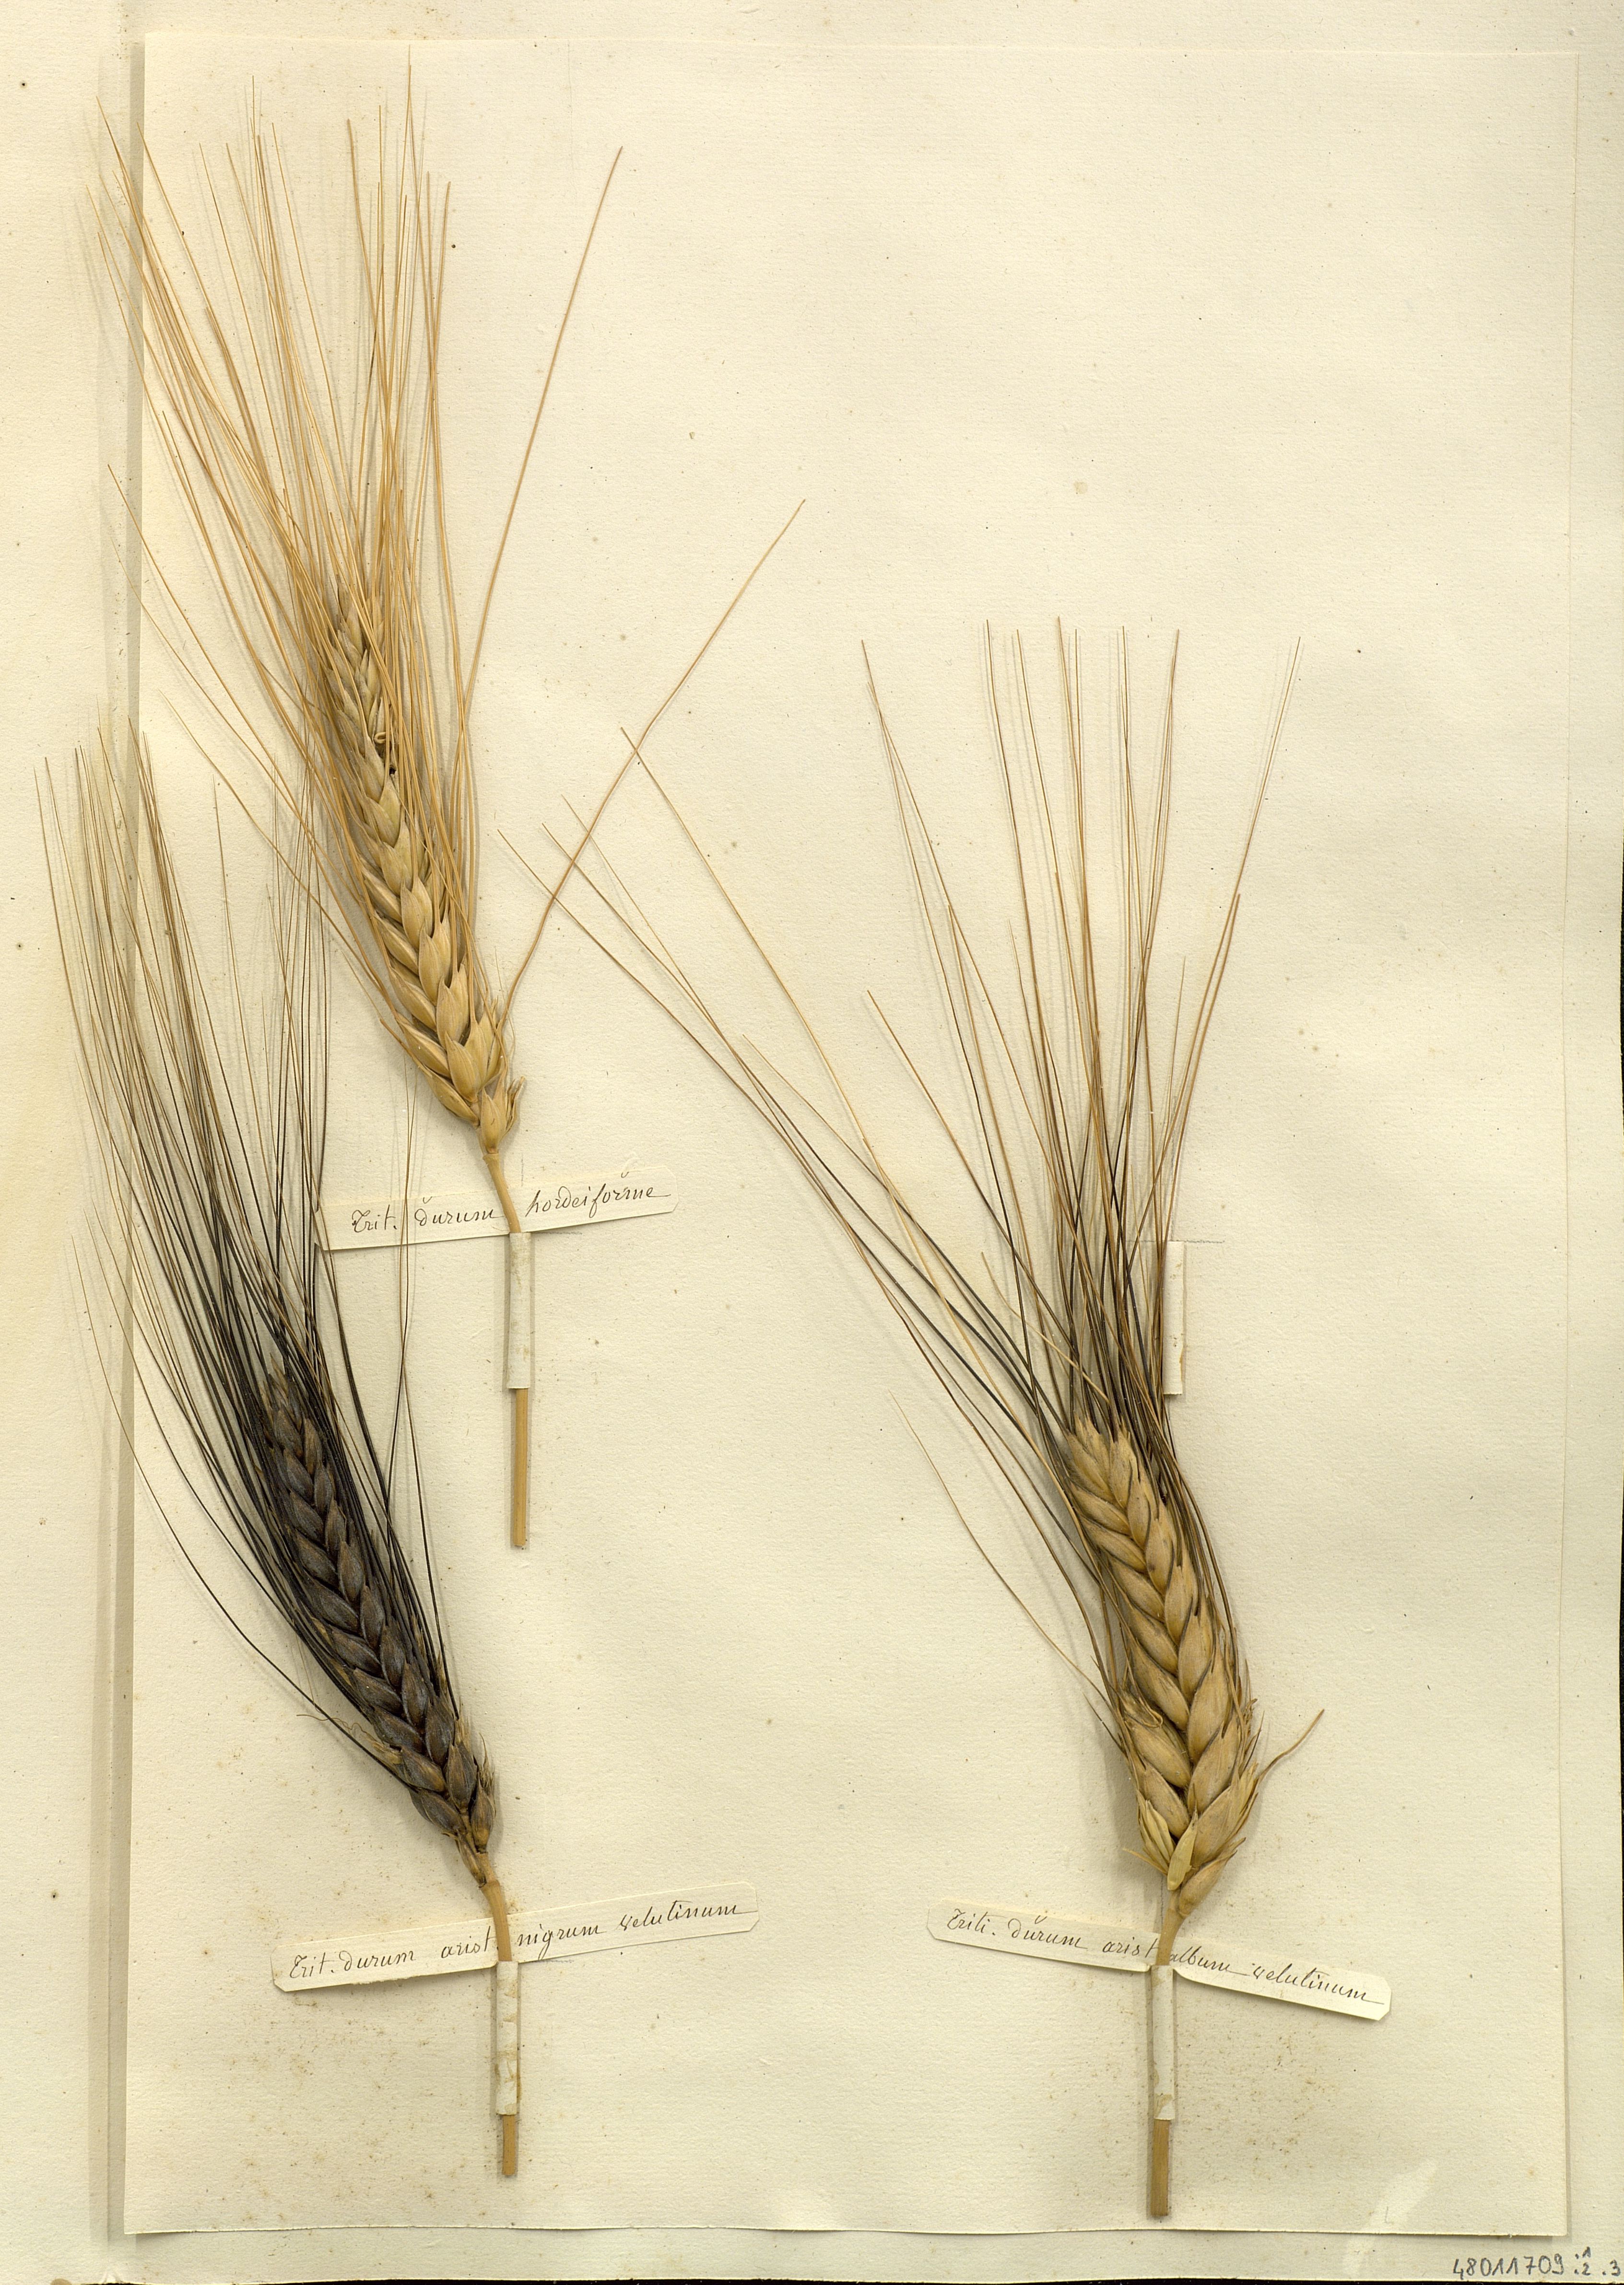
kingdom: Plantae
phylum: Tracheophyta
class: Liliopsida
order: Poales
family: Poaceae
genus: Triticum
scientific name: Triticum durum
